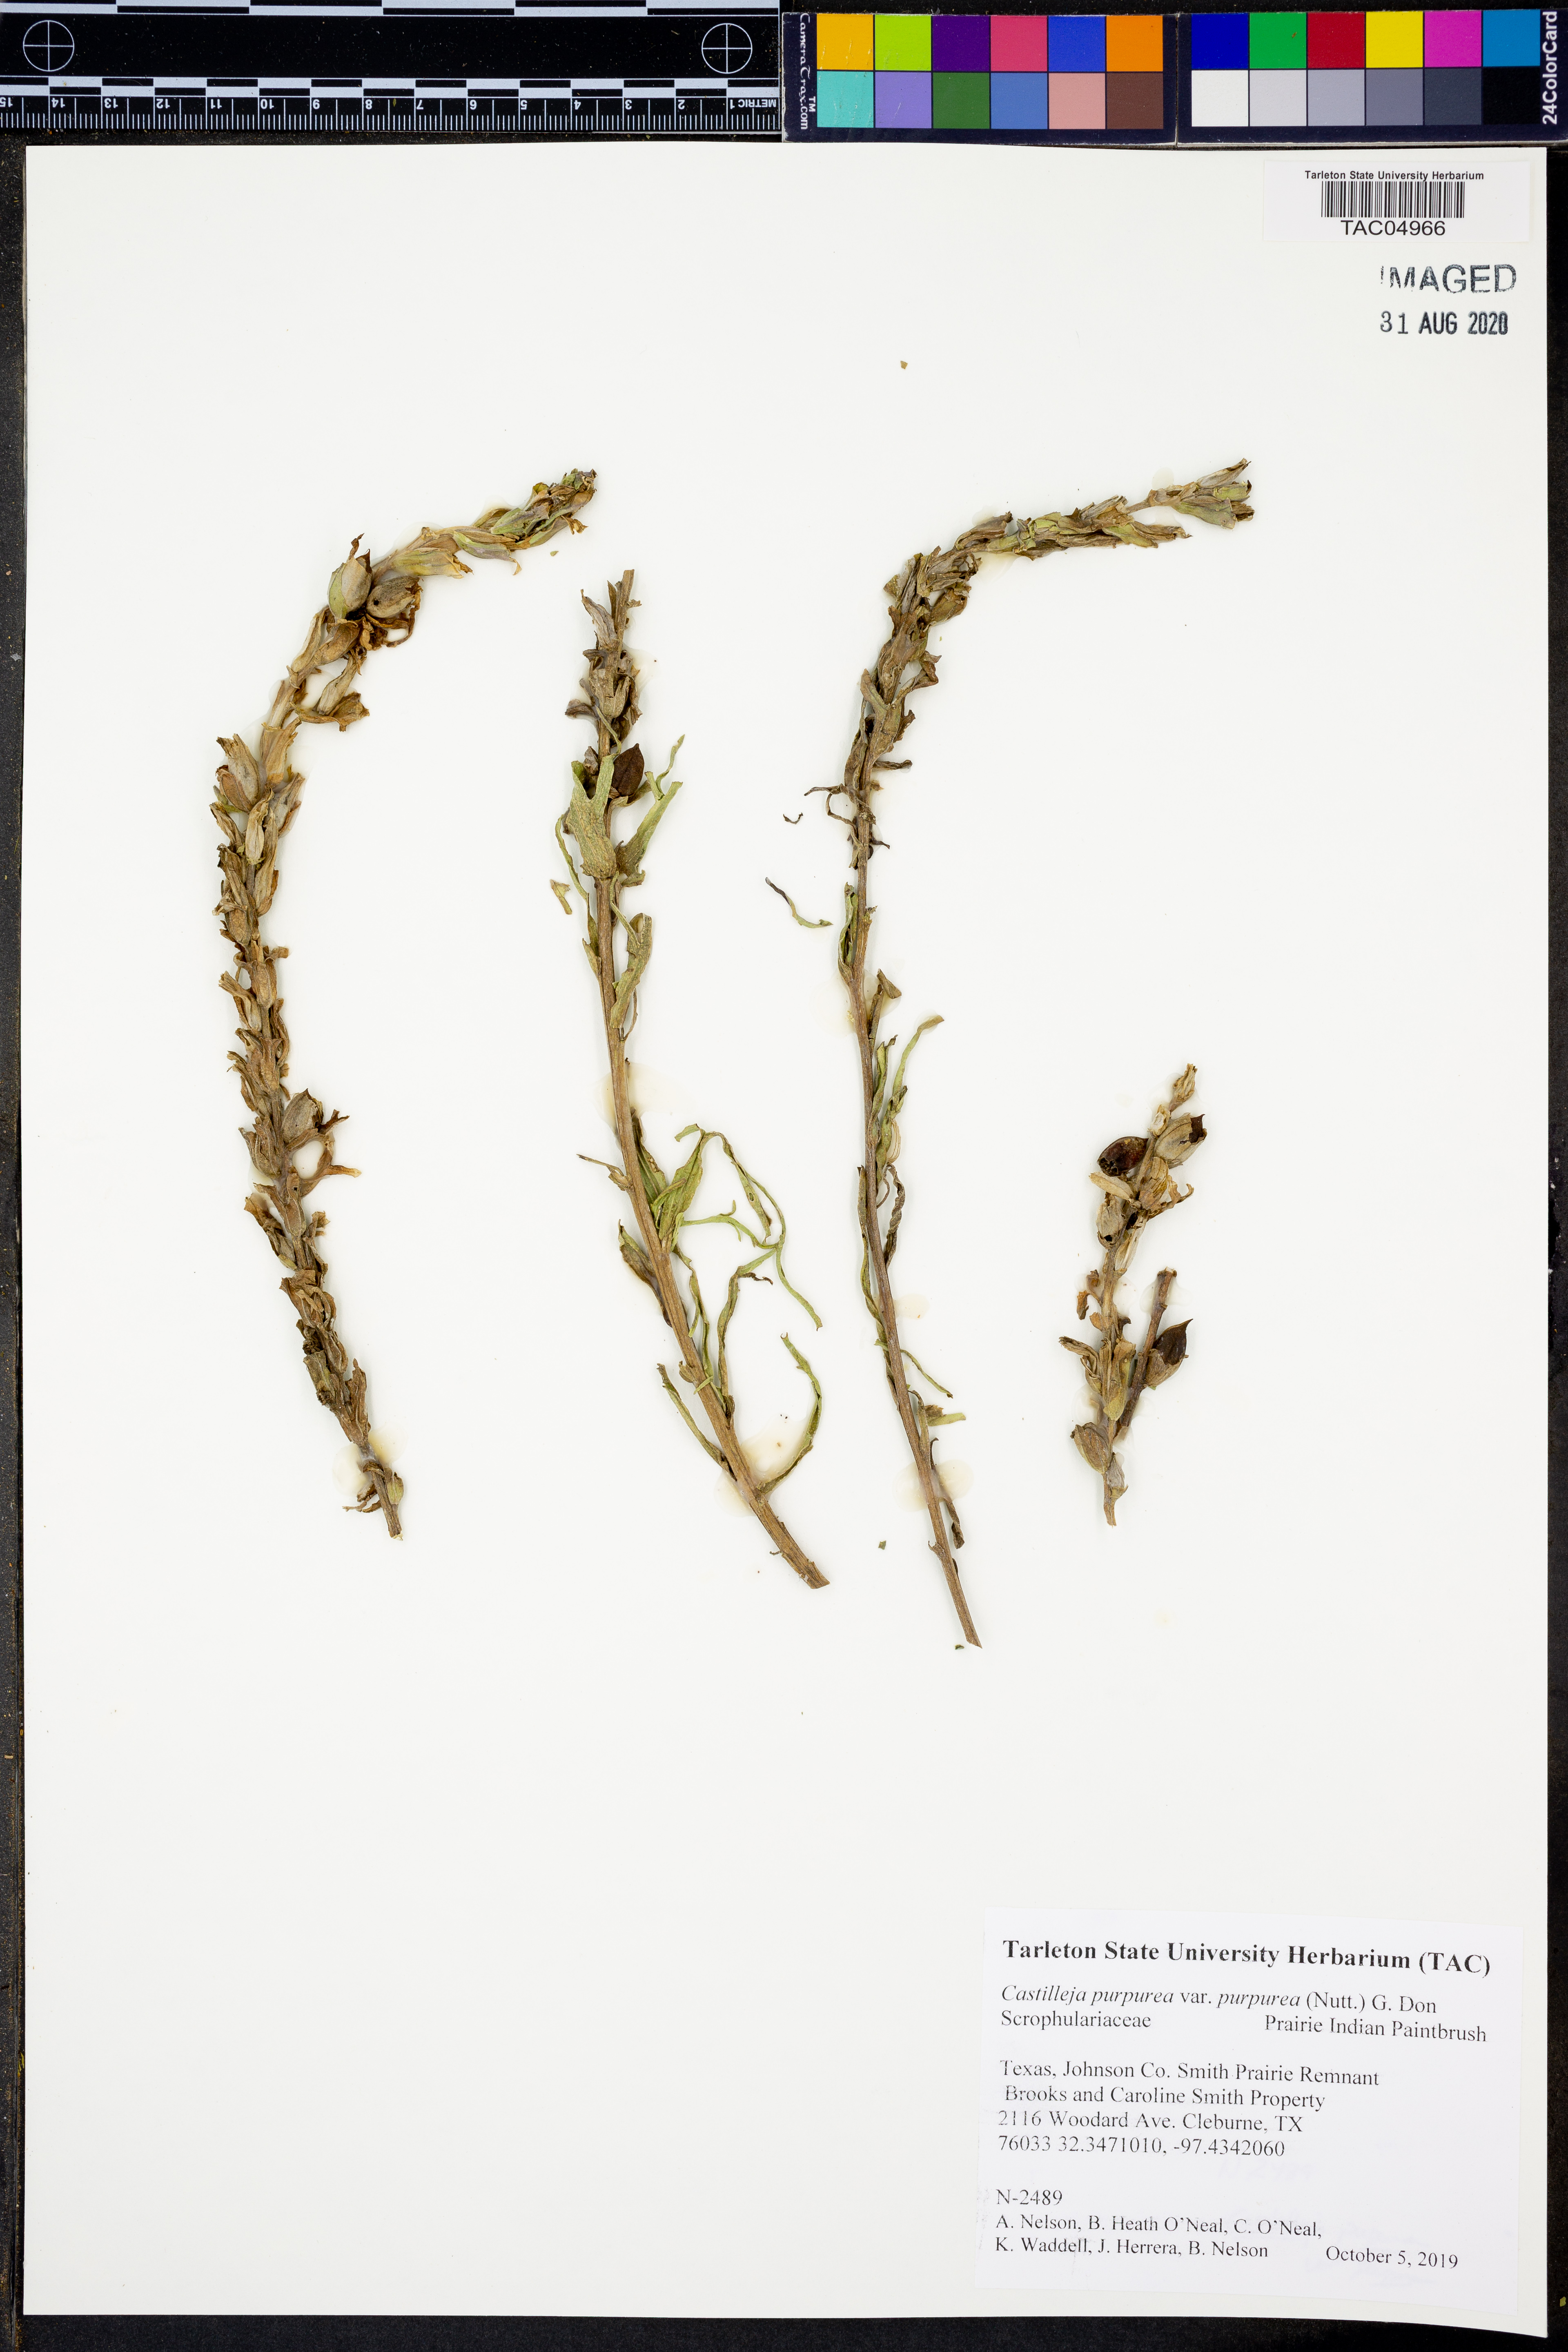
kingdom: Plantae
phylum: Tracheophyta
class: Magnoliopsida
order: Lamiales
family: Orobanchaceae
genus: Castilleja
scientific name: Castilleja purpurea
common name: Plains paintbrush
